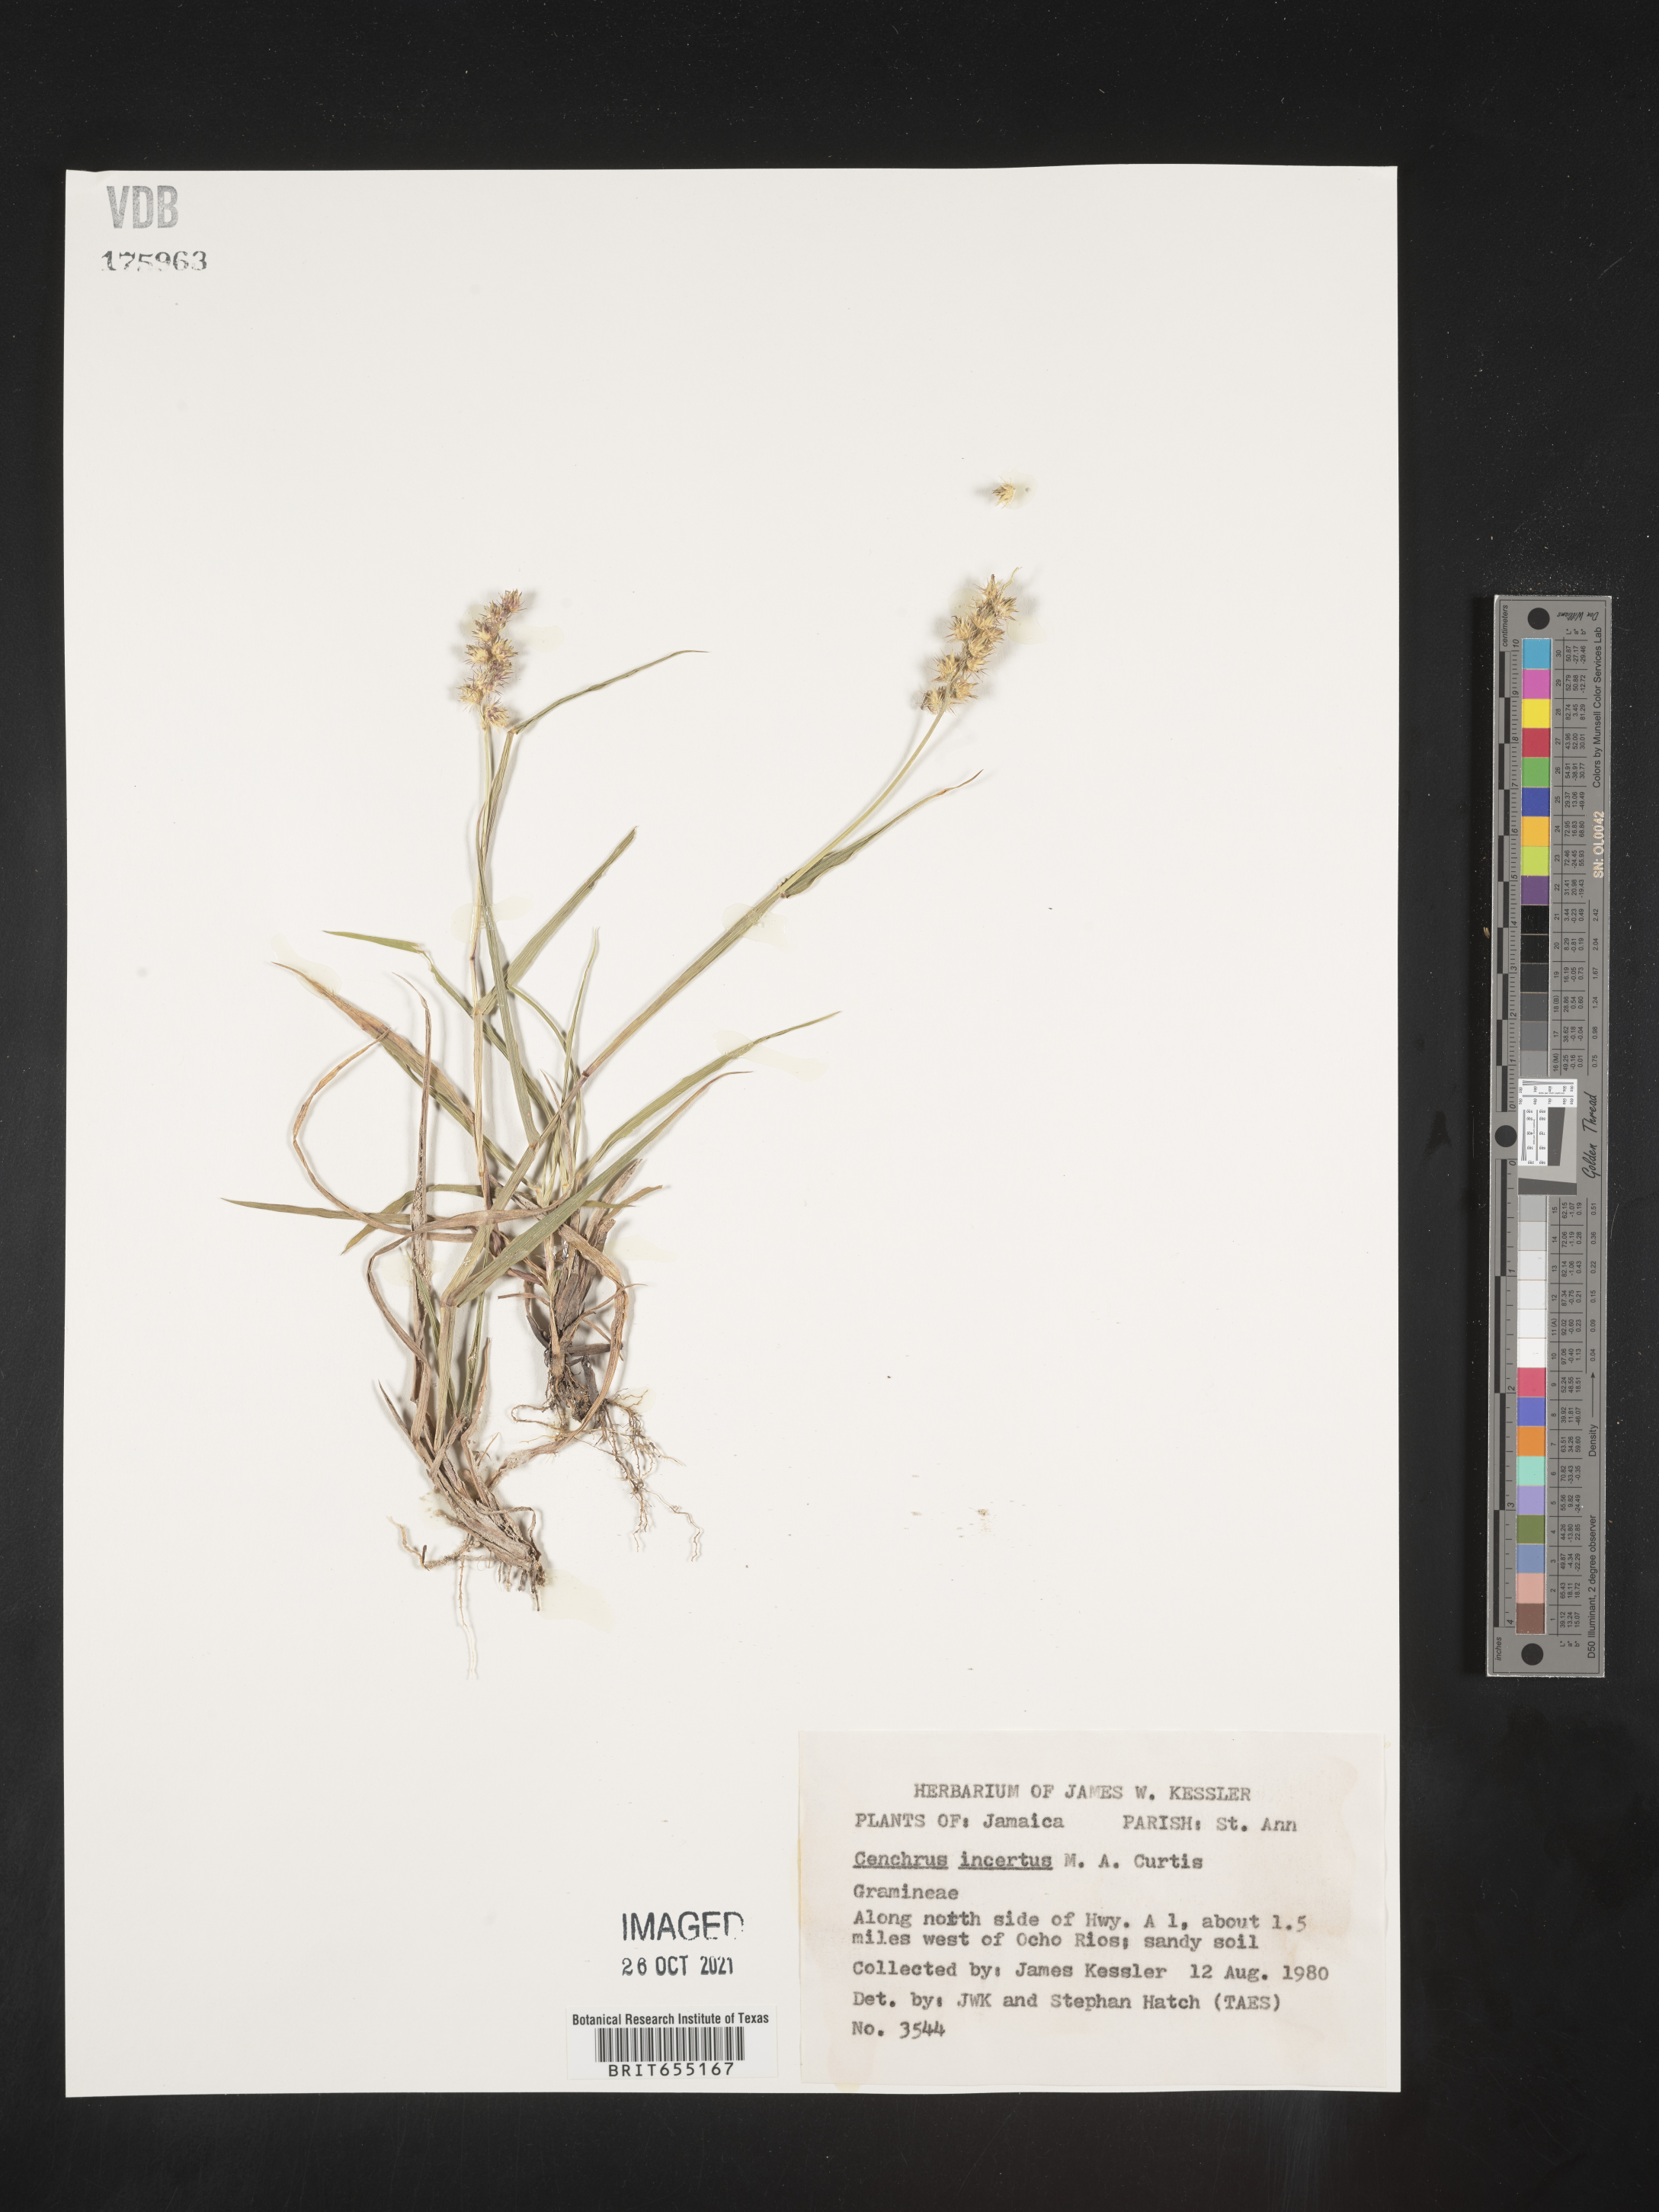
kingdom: Plantae
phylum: Tracheophyta
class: Liliopsida
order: Poales
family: Poaceae
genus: Cenchrus
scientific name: Cenchrus
